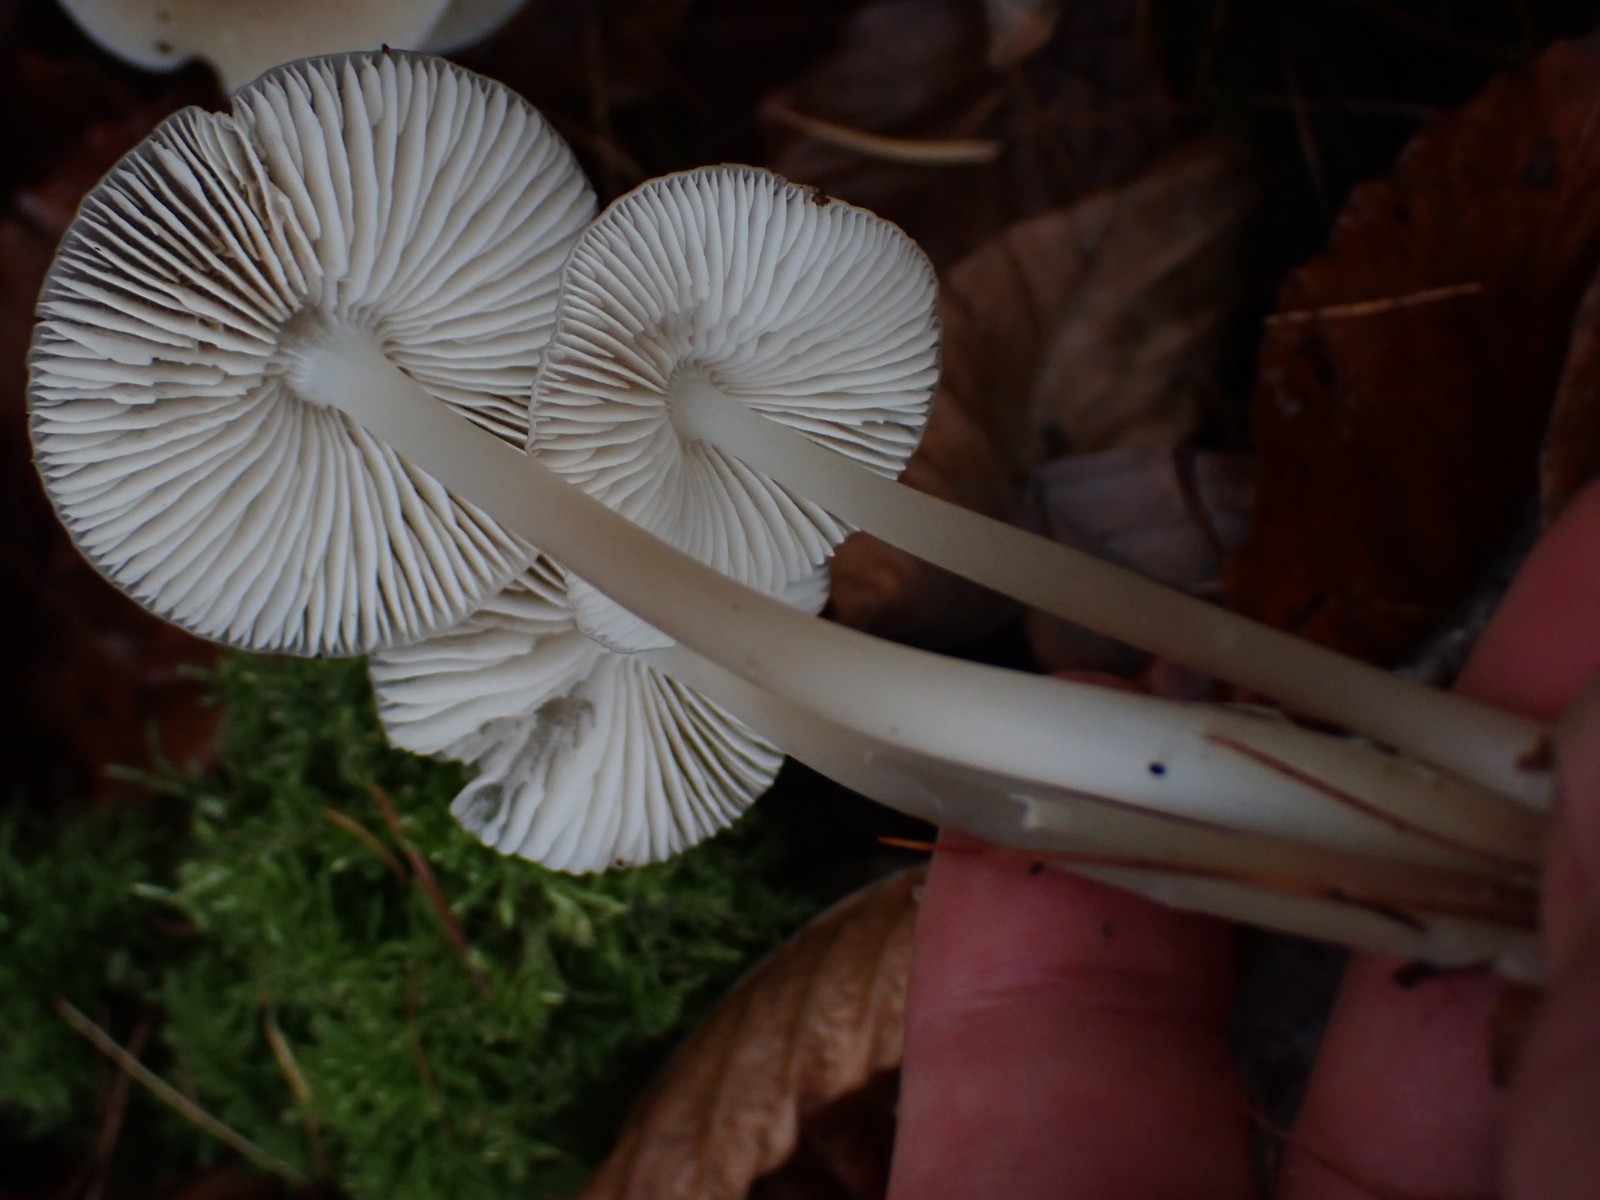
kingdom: Fungi
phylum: Basidiomycota
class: Agaricomycetes
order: Agaricales
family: Mycenaceae
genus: Mycena
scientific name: Mycena galericulata
